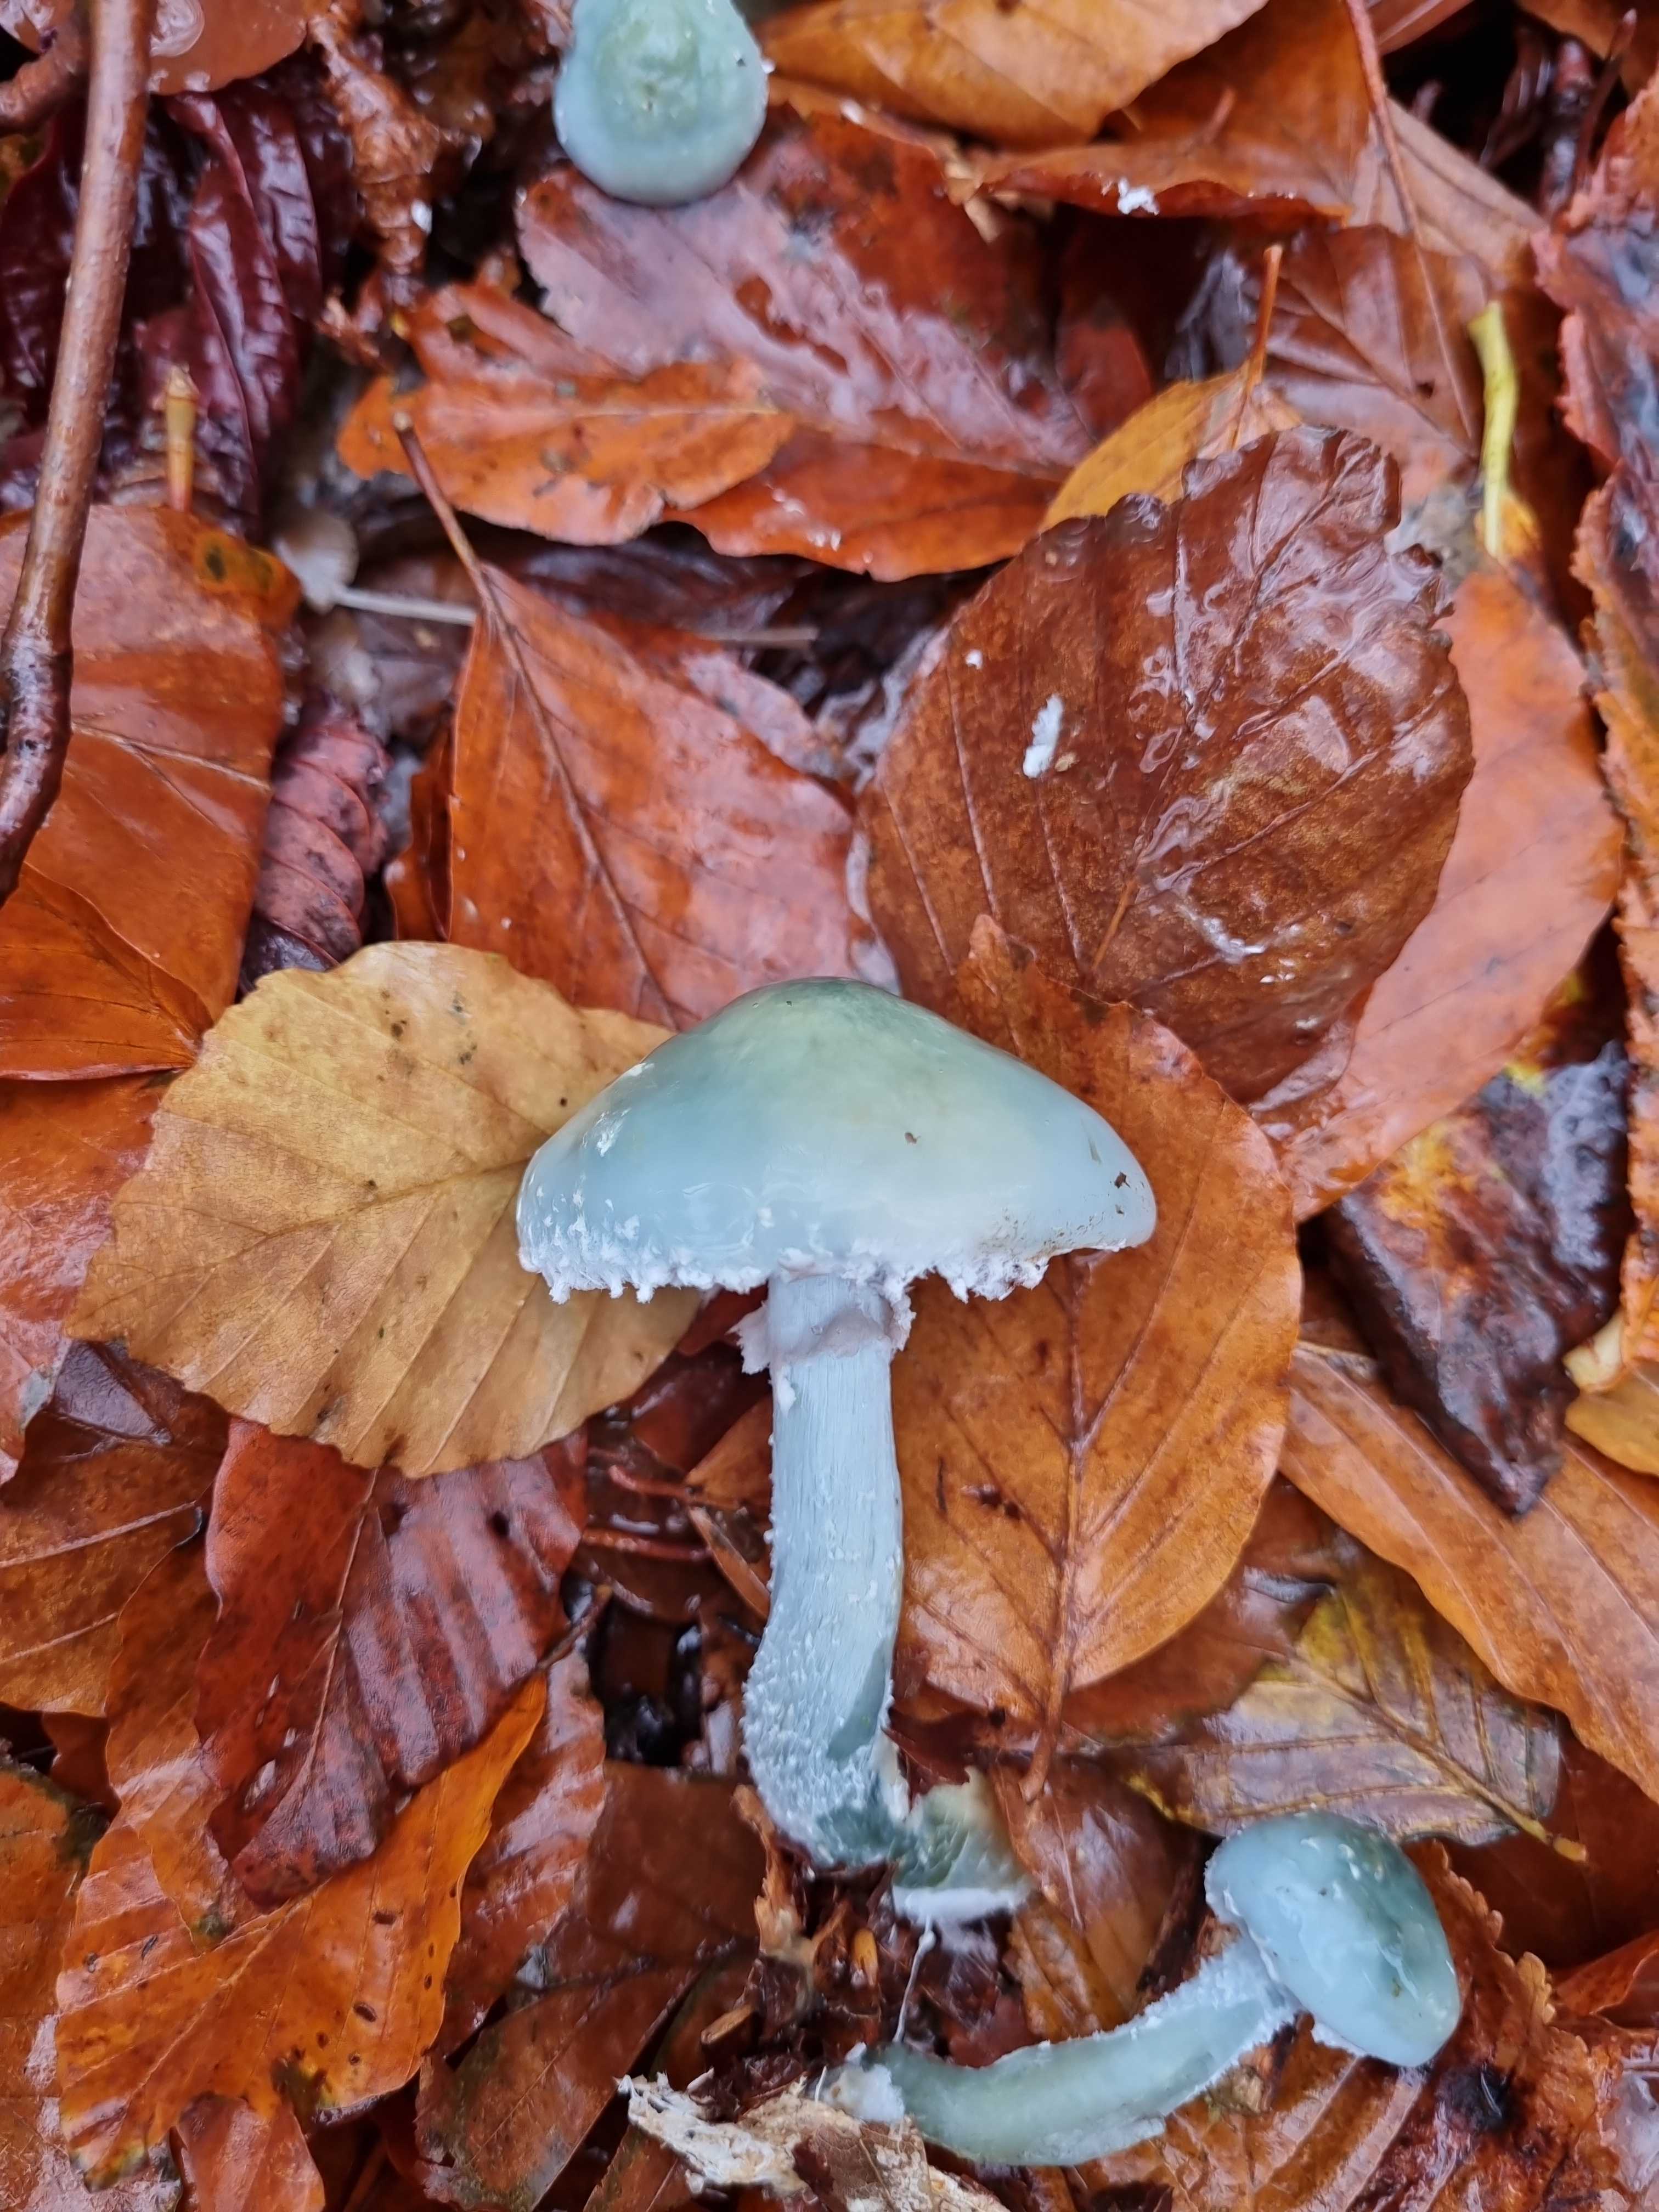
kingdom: Fungi
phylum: Basidiomycota
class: Agaricomycetes
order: Agaricales
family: Strophariaceae
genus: Stropharia
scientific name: Stropharia cyanea
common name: blågrøn bredblad
